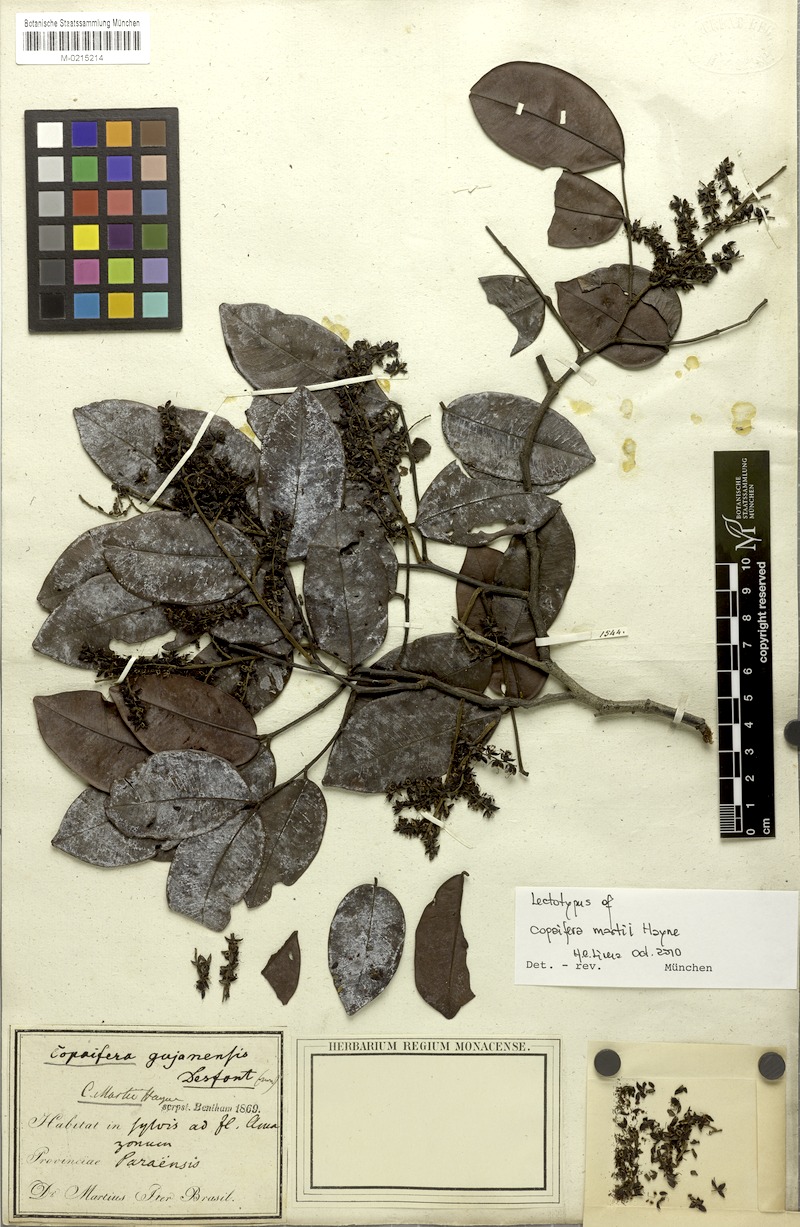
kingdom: Plantae
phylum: Tracheophyta
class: Magnoliopsida
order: Fabales
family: Fabaceae
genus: Copaifera
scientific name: Copaifera martii
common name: Copaiba
